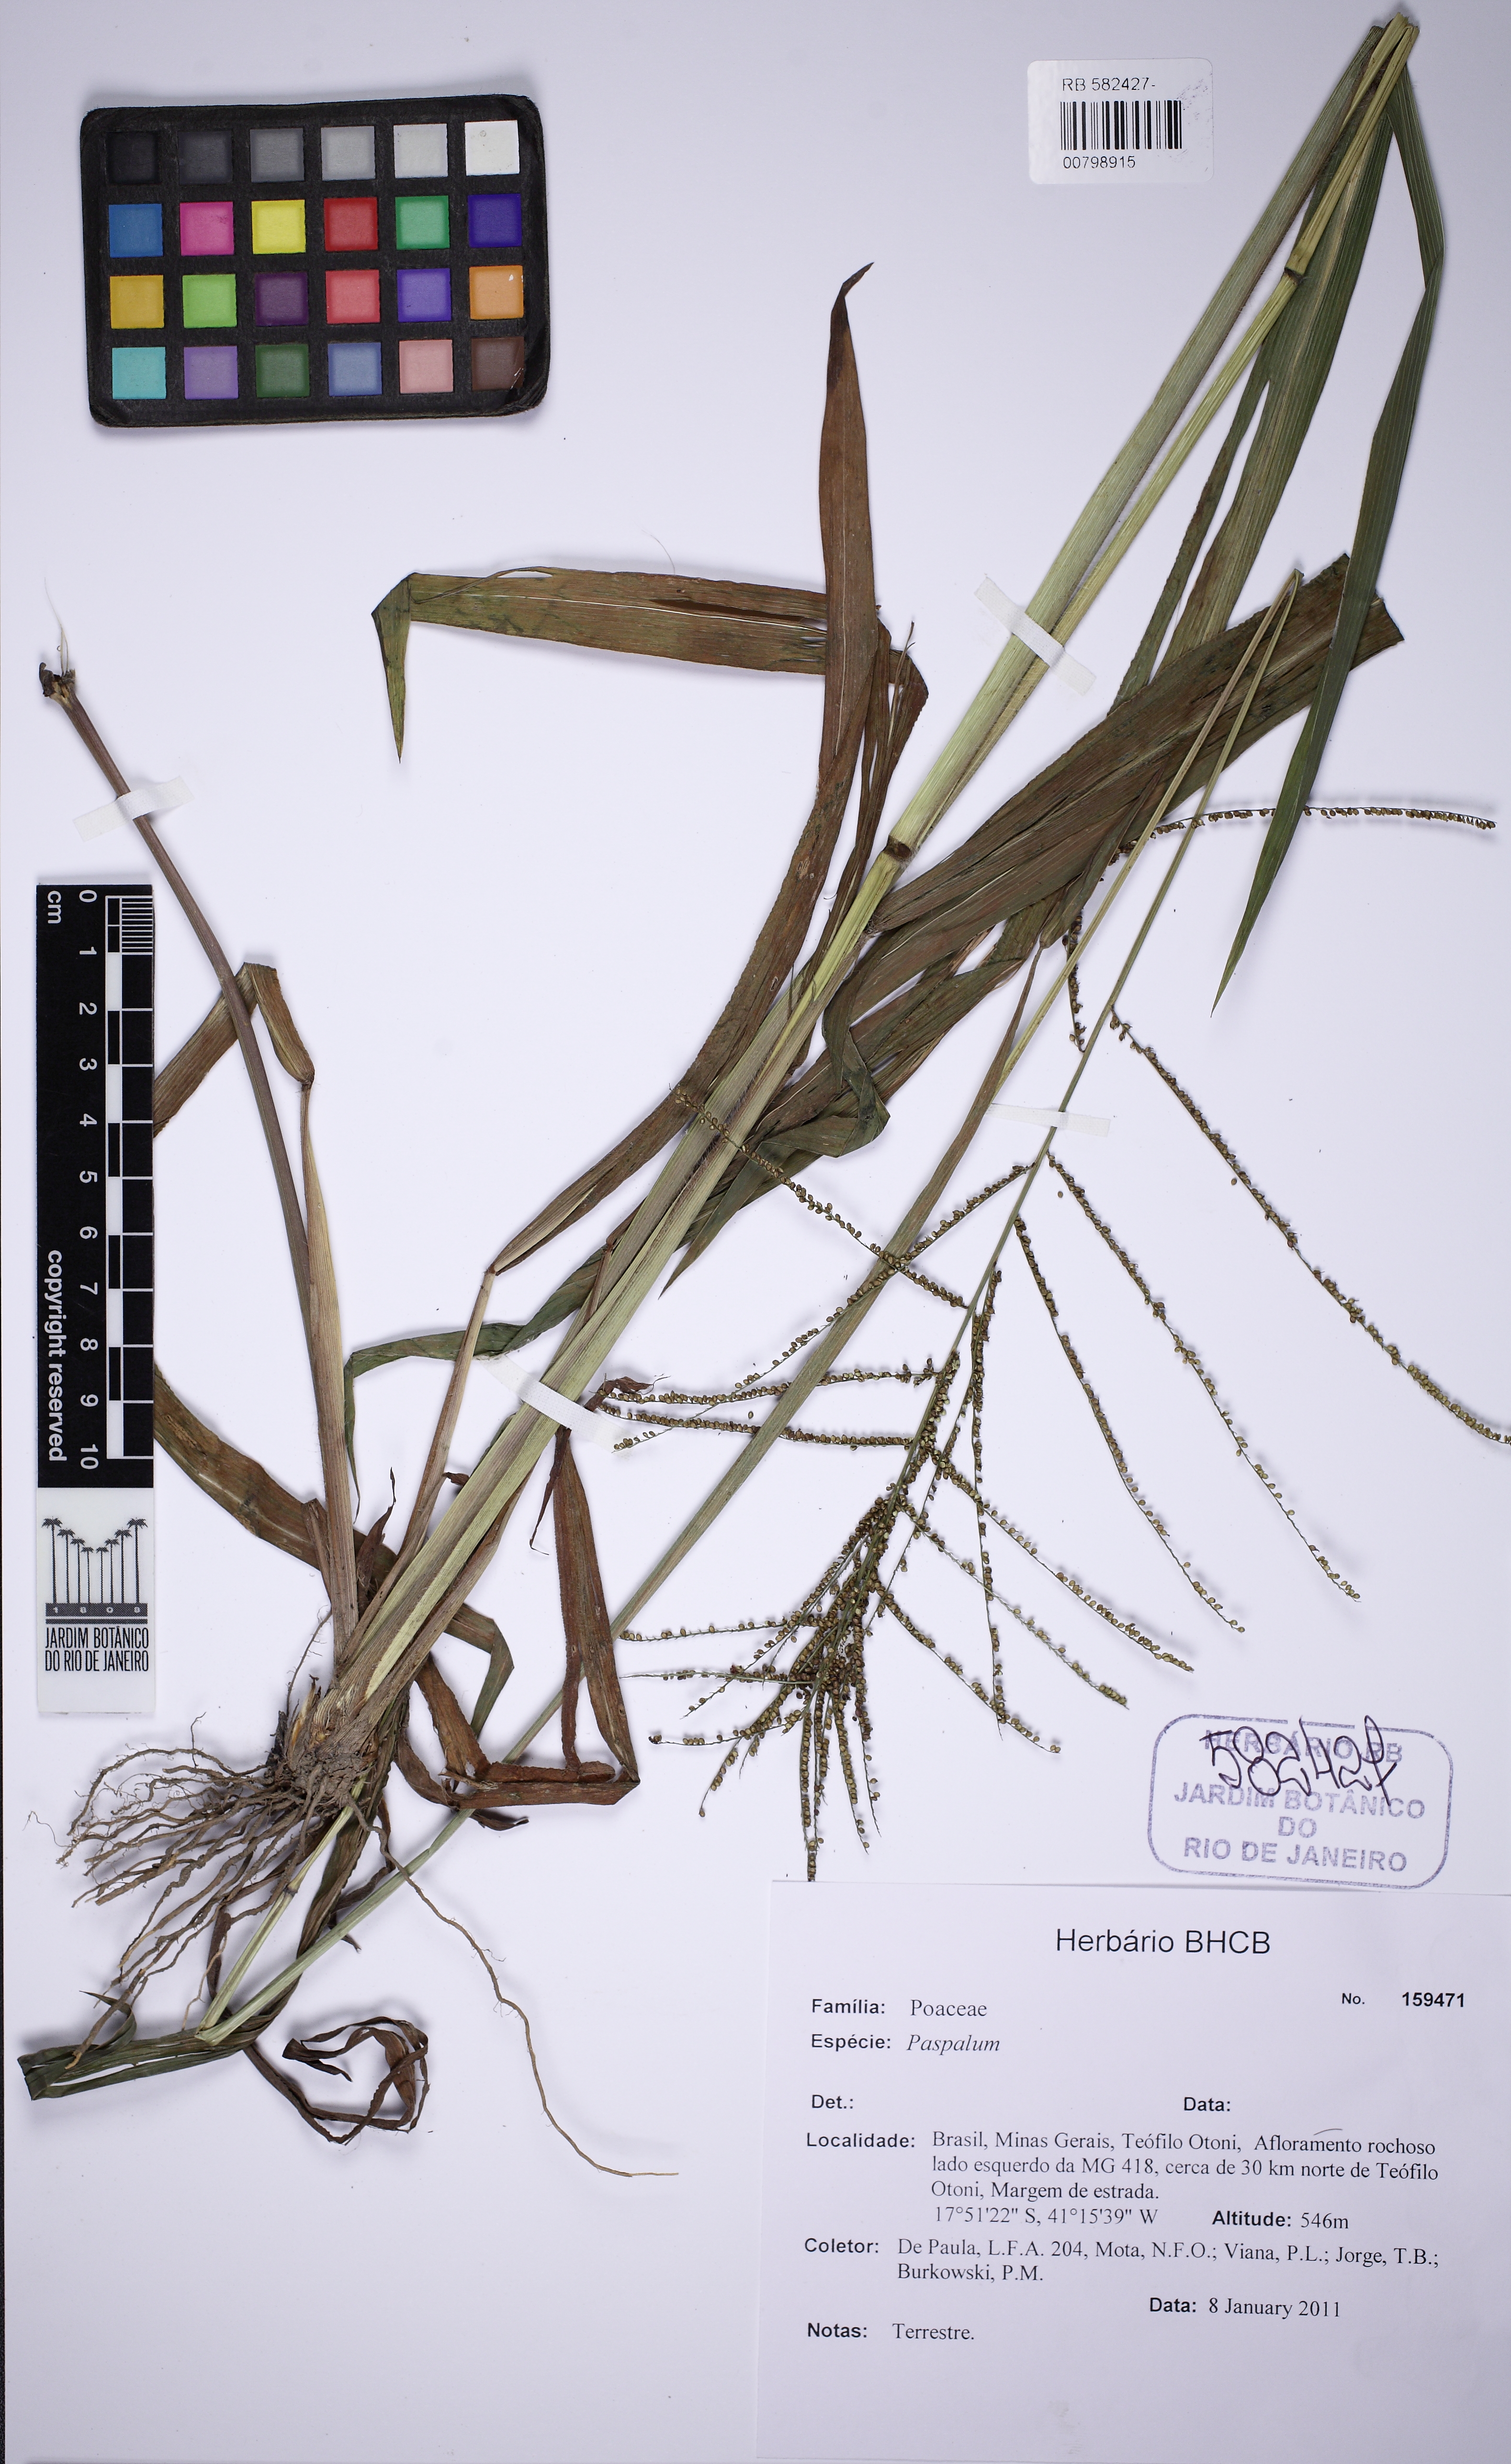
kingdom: Plantae
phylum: Tracheophyta
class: Liliopsida
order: Poales
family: Poaceae
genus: Paspalum
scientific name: Paspalum
